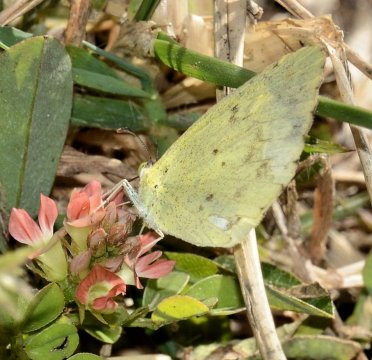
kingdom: Animalia
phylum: Arthropoda
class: Insecta
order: Lepidoptera
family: Pieridae
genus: Pyrisitia
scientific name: Pyrisitia lisa
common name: Little Yellow
